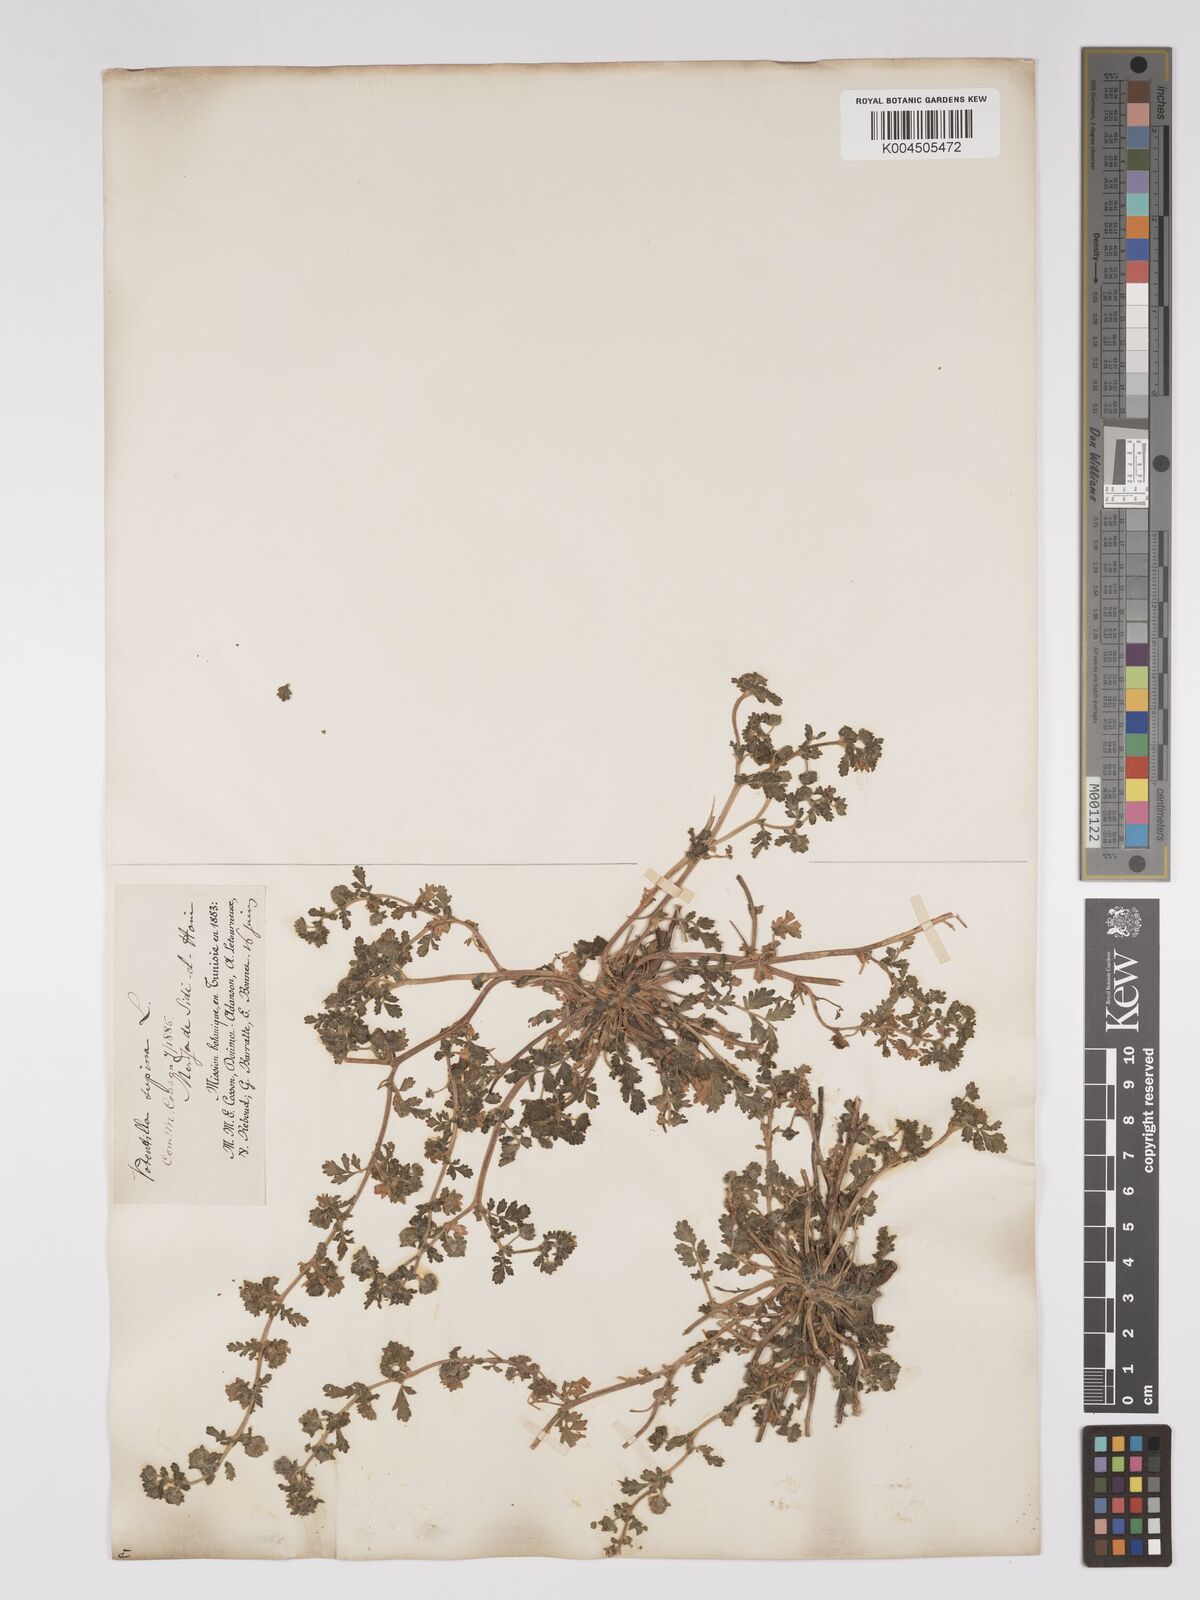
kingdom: Plantae
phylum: Tracheophyta
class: Magnoliopsida
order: Rosales
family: Rosaceae
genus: Potentilla
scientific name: Potentilla supina
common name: Prostrate cinquefoil
